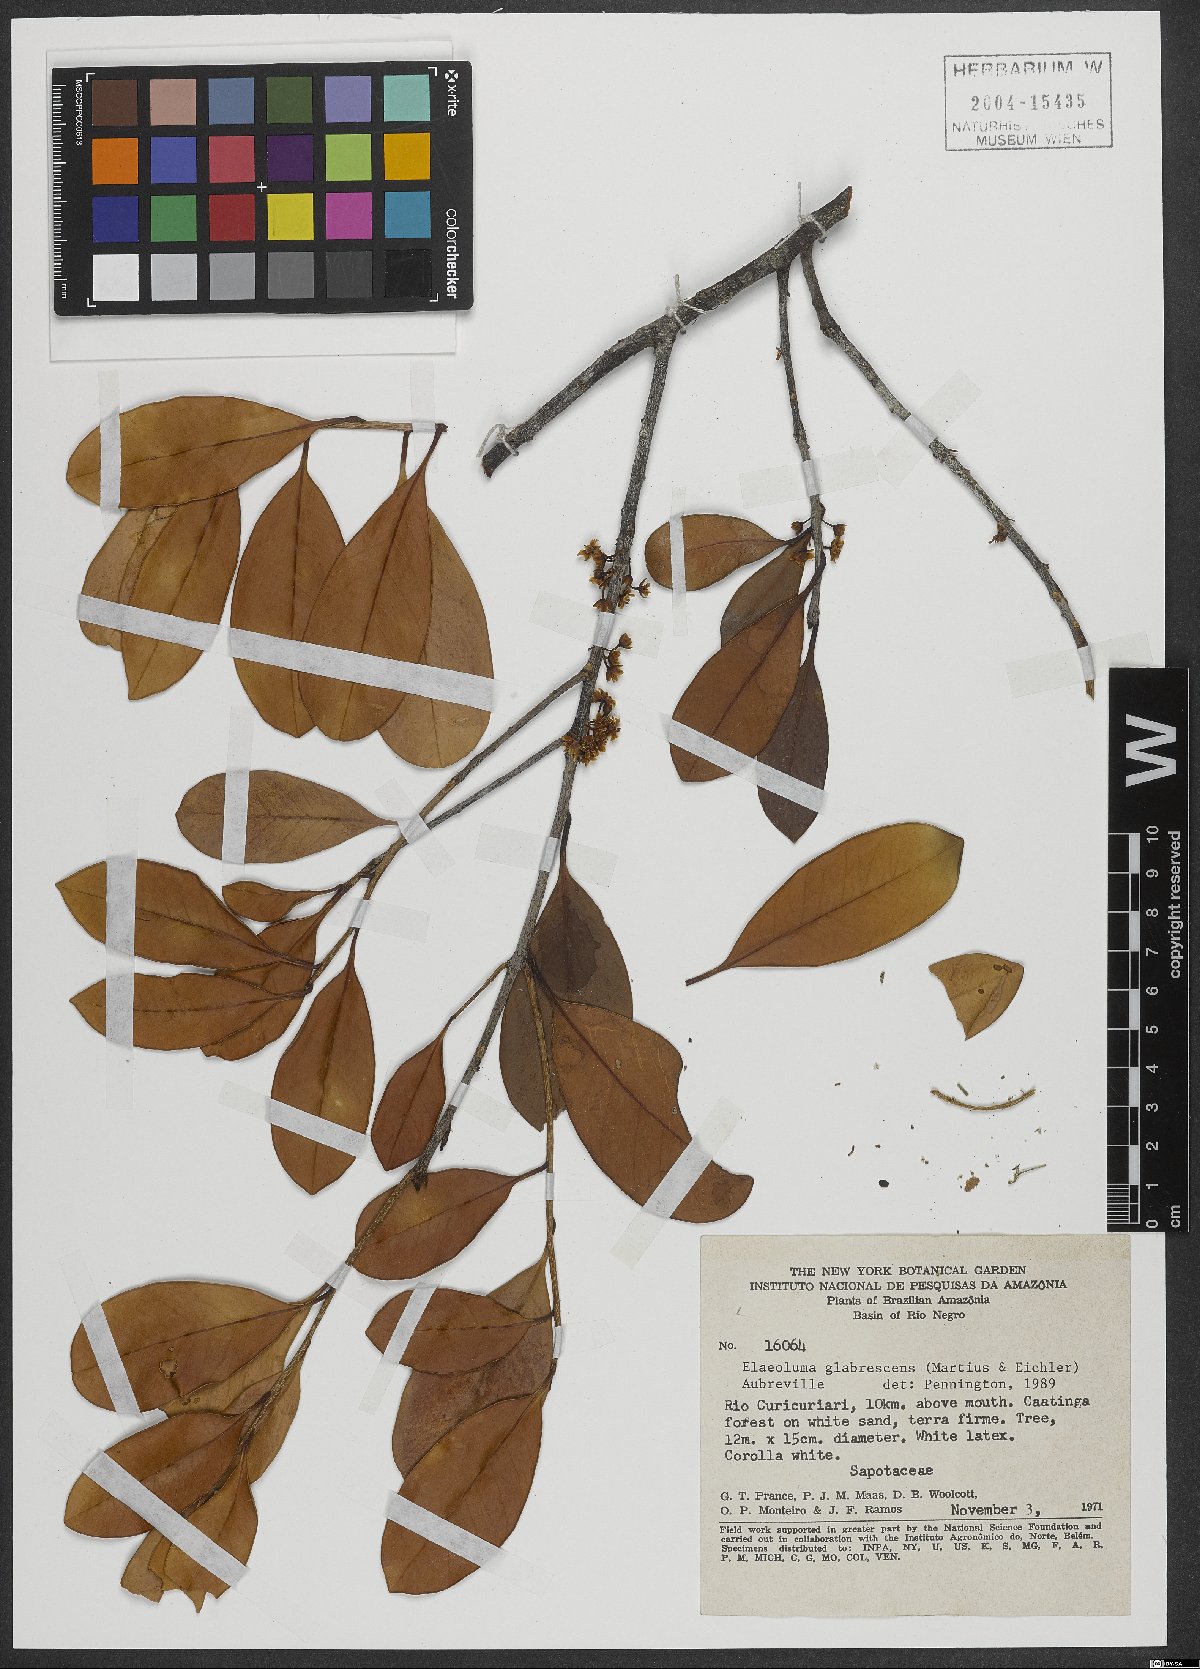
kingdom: Plantae
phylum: Tracheophyta
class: Magnoliopsida
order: Ericales
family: Sapotaceae
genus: Elaeoluma
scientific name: Elaeoluma glabrescens
